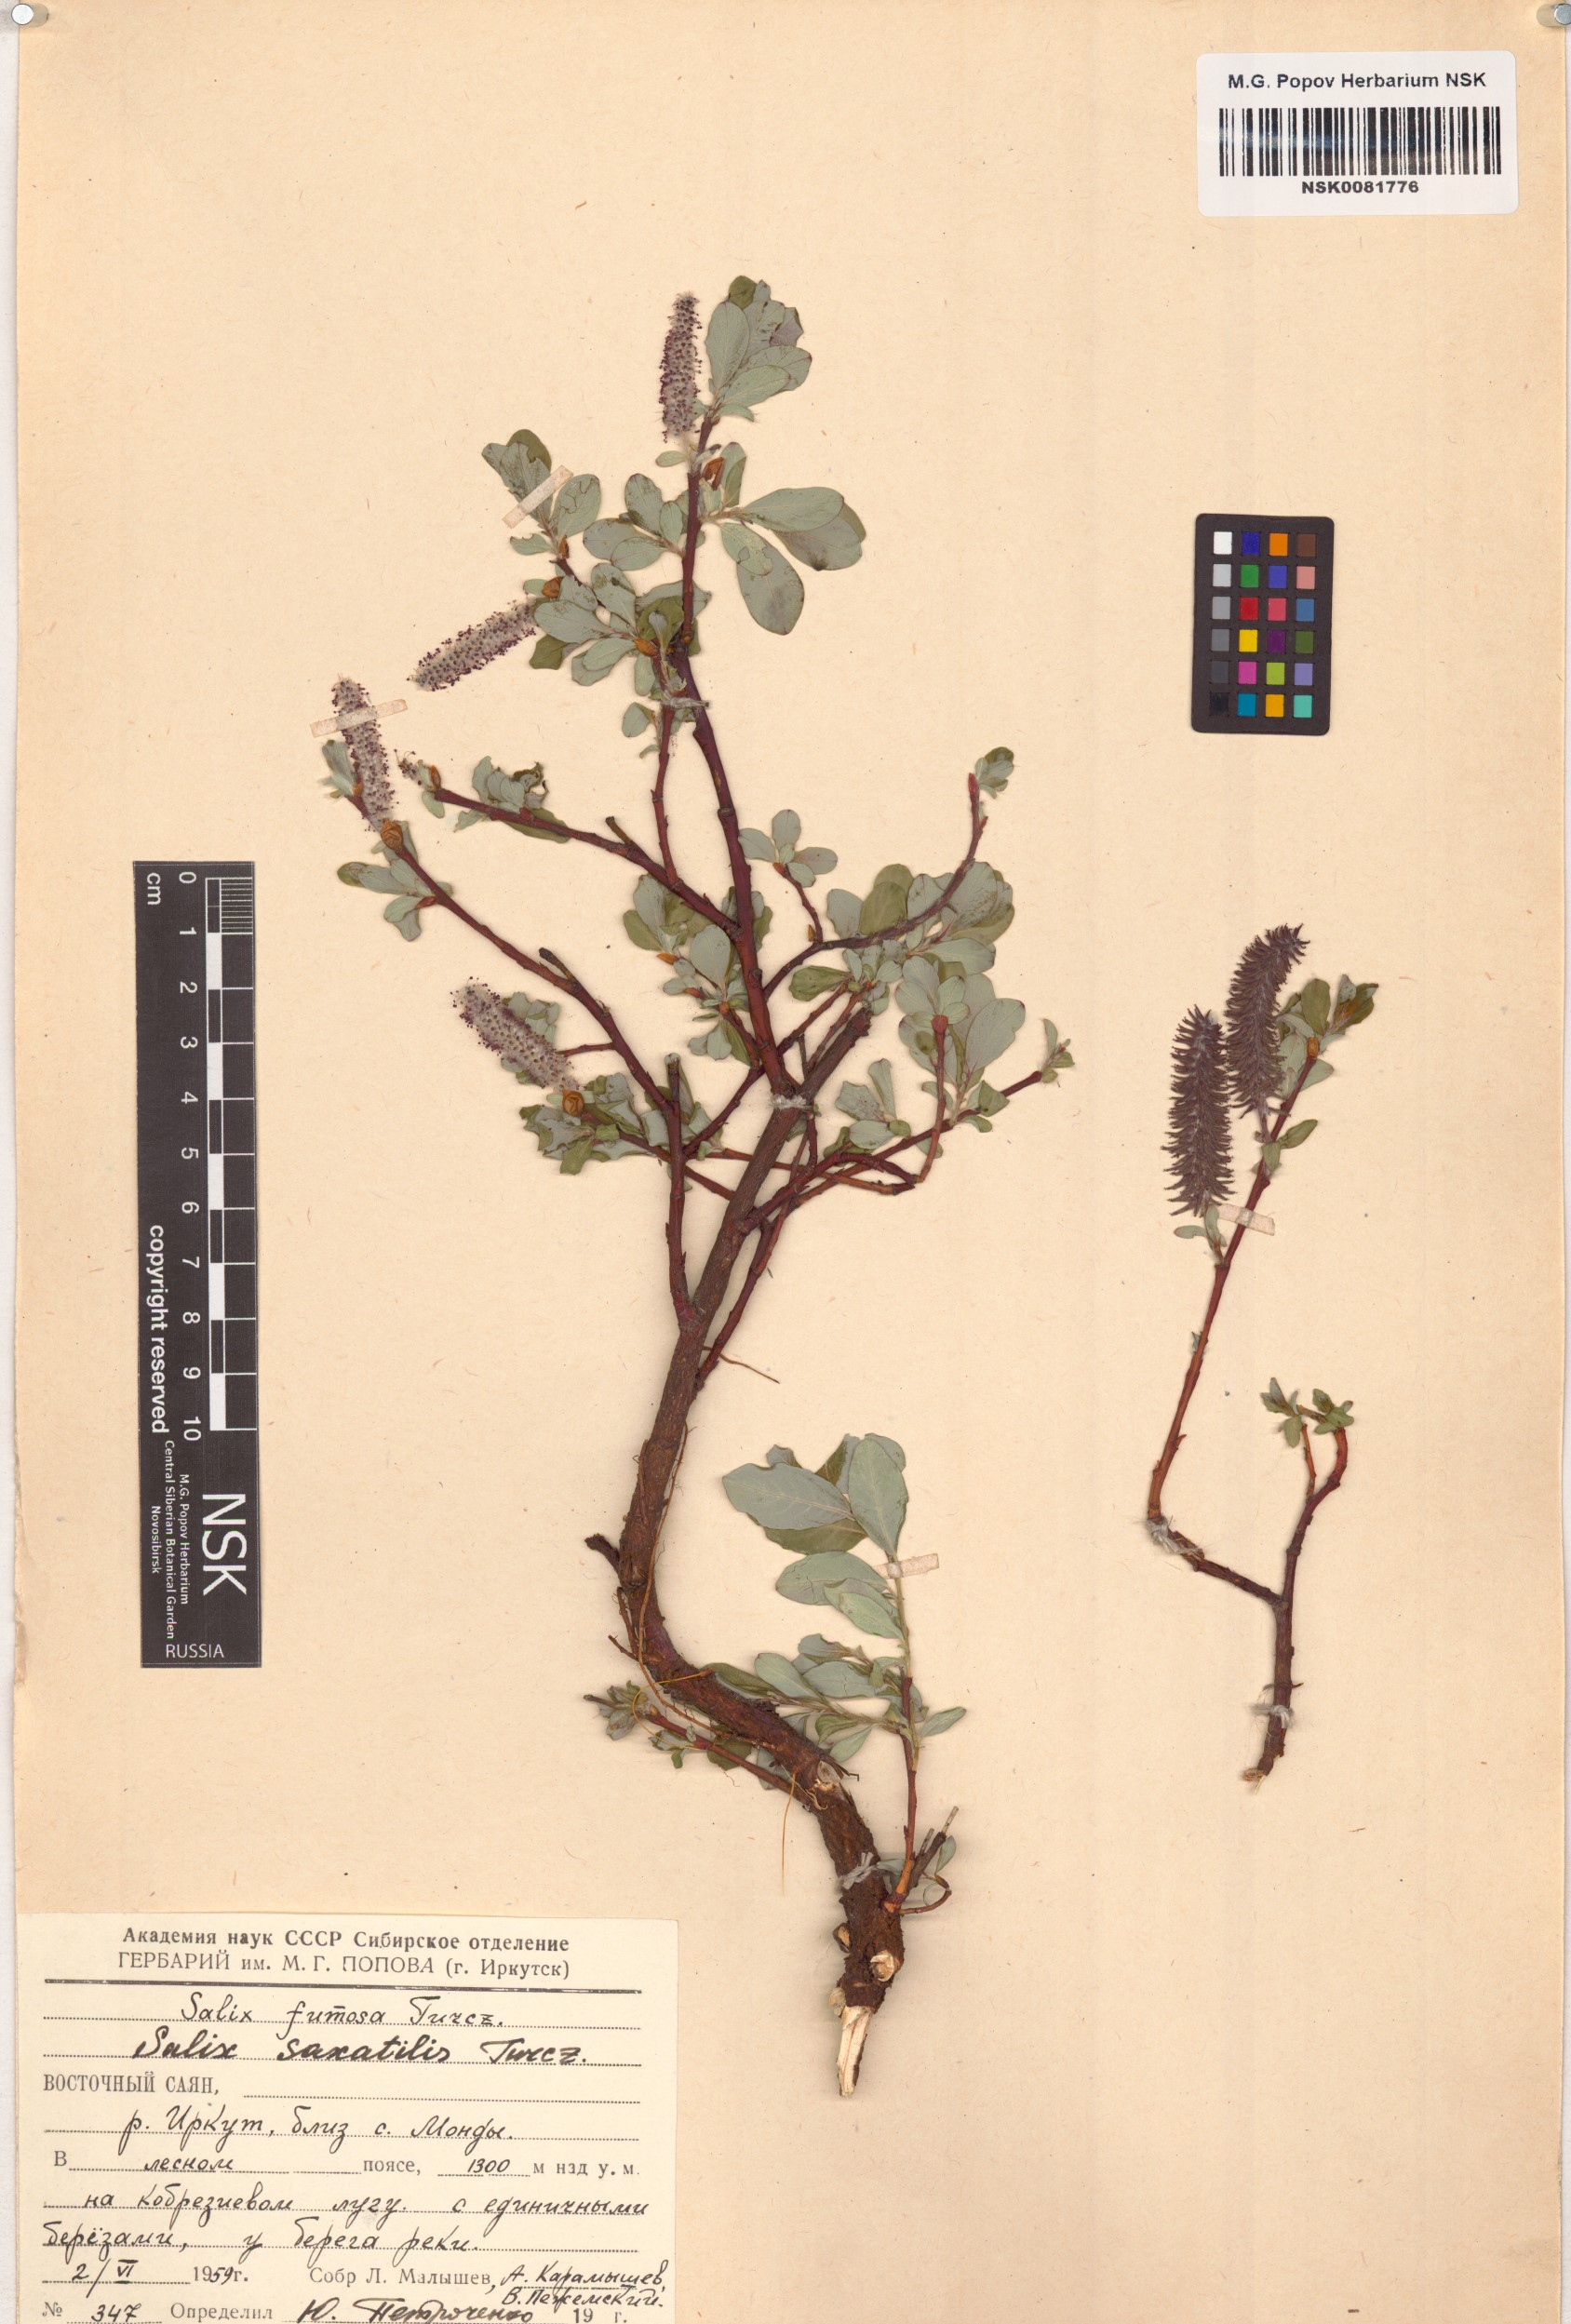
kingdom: Plantae
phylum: Tracheophyta
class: Magnoliopsida
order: Malpighiales
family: Salicaceae
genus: Salix
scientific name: Salix saxatilis
